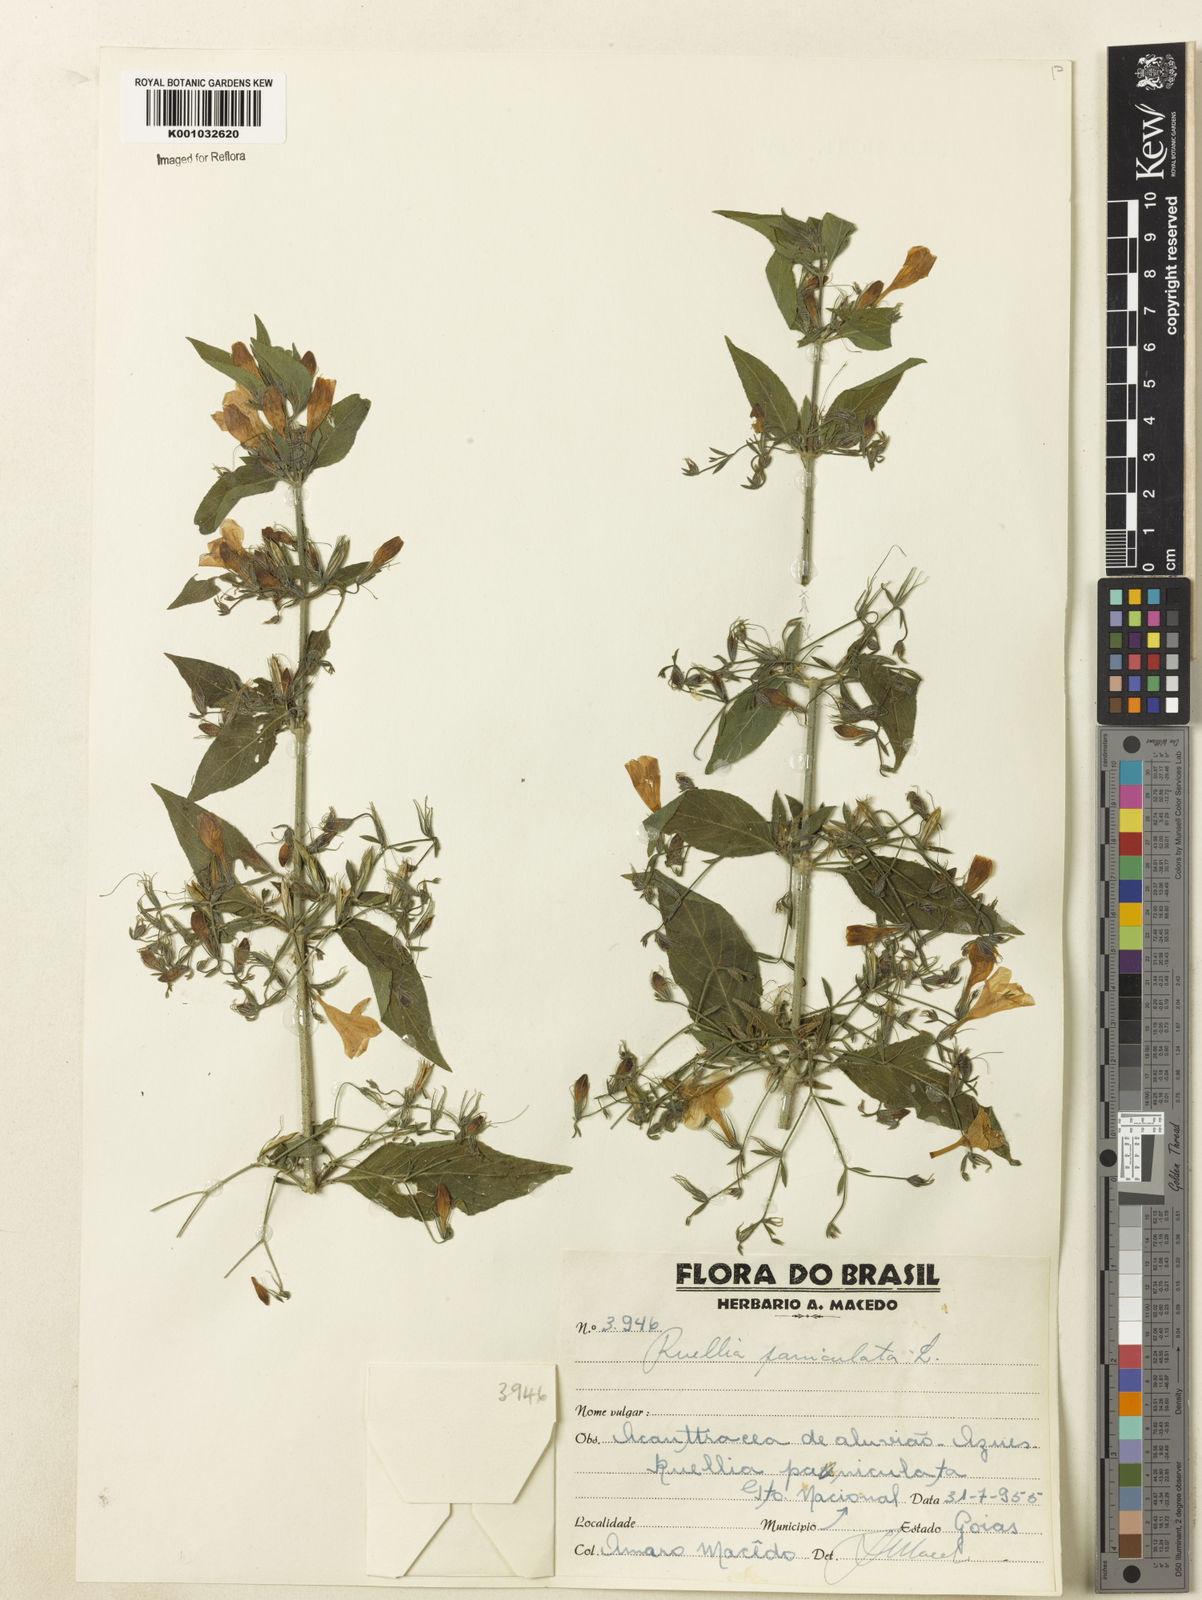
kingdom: Plantae
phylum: Tracheophyta
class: Magnoliopsida
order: Lamiales
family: Acanthaceae
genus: Ruellia
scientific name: Ruellia paniculata
